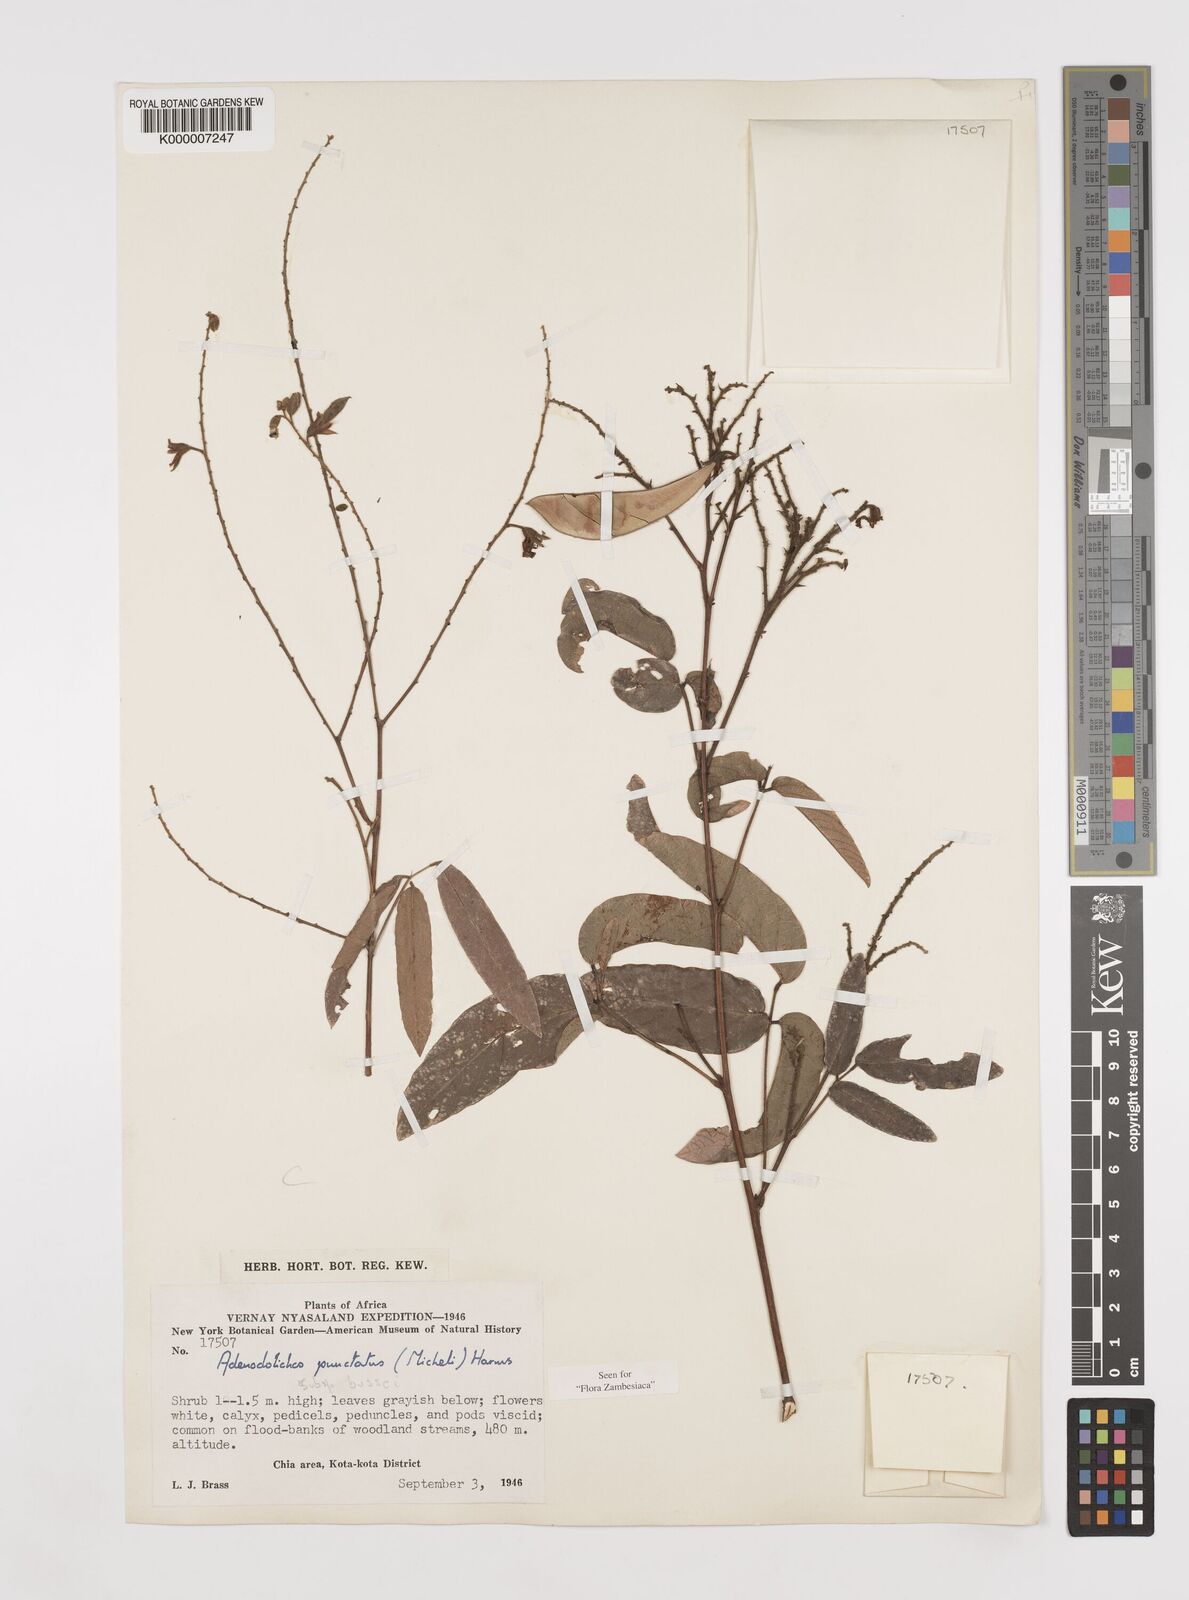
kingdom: Plantae
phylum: Tracheophyta
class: Magnoliopsida
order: Fabales
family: Fabaceae
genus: Adenodolichos
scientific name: Adenodolichos punctatus
